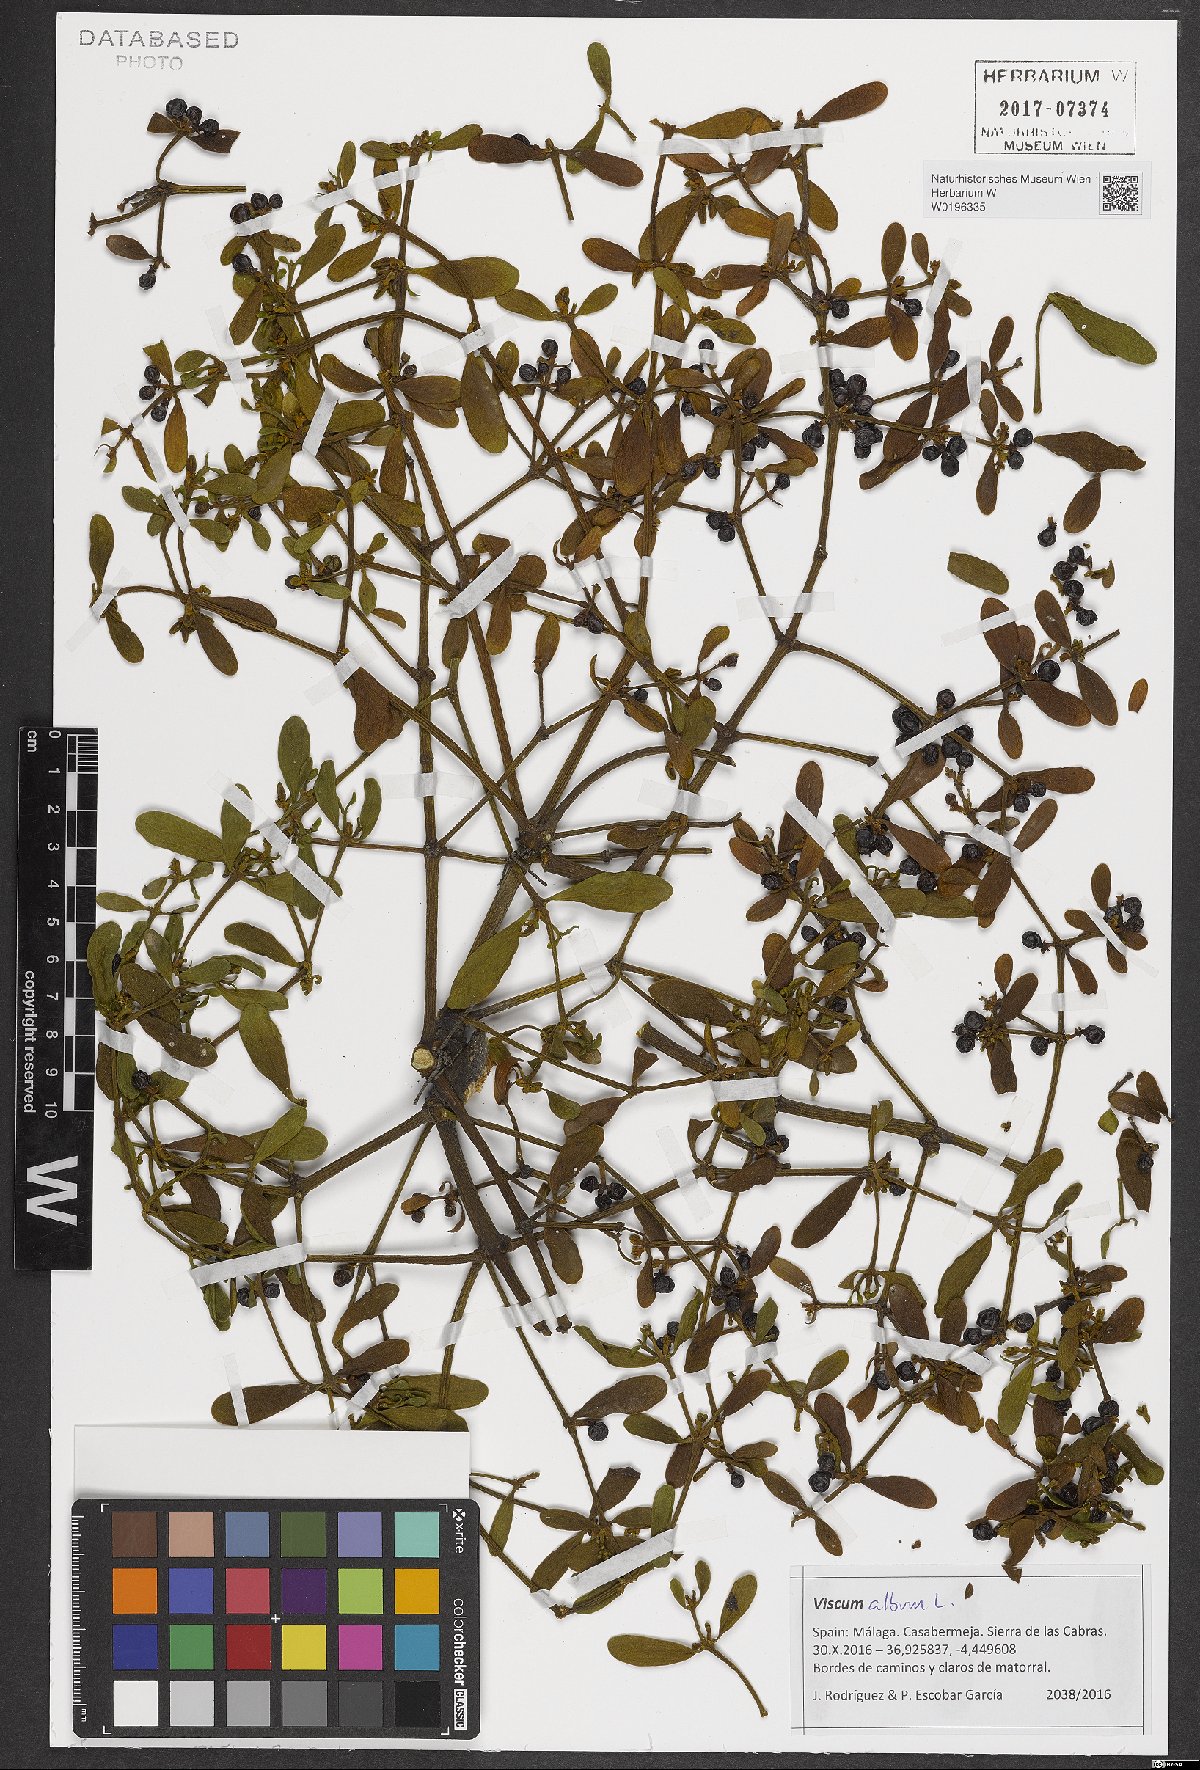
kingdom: Plantae
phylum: Tracheophyta
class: Magnoliopsida
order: Santalales
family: Viscaceae
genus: Viscum
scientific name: Viscum album
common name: Mistletoe
